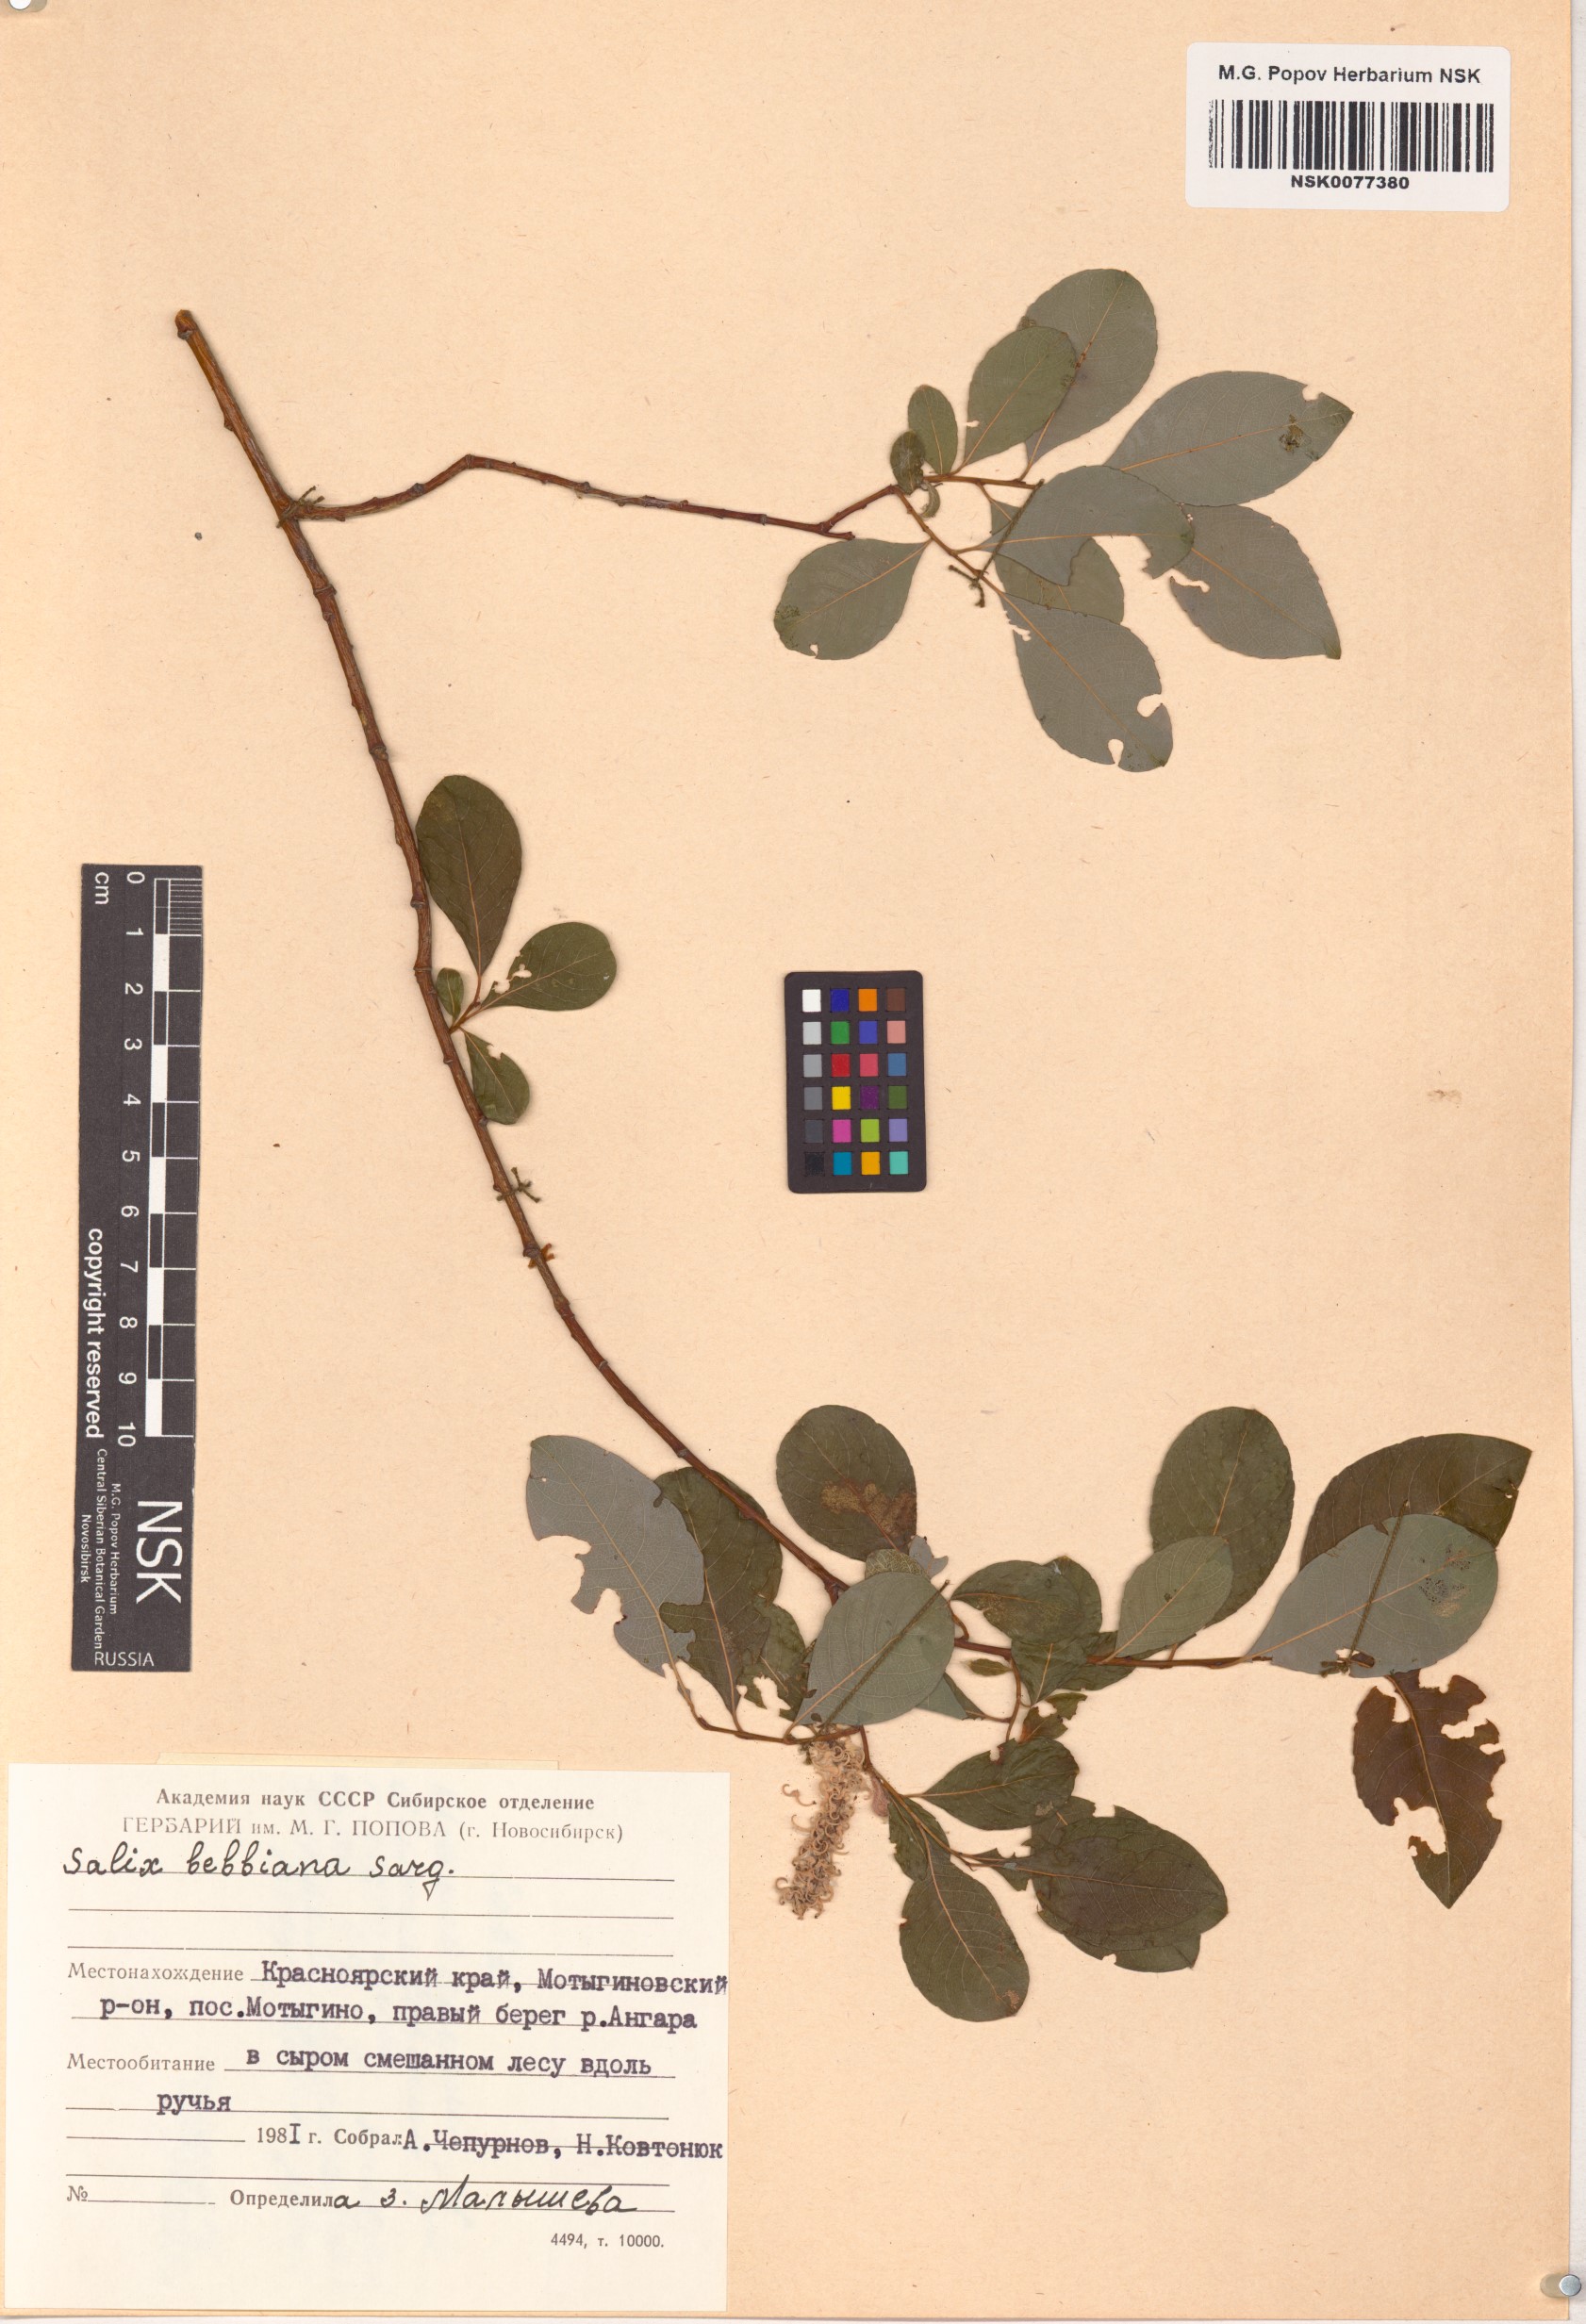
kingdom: Plantae
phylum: Tracheophyta
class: Magnoliopsida
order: Malpighiales
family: Salicaceae
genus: Salix
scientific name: Salix bebbiana
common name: Bebb's willow
